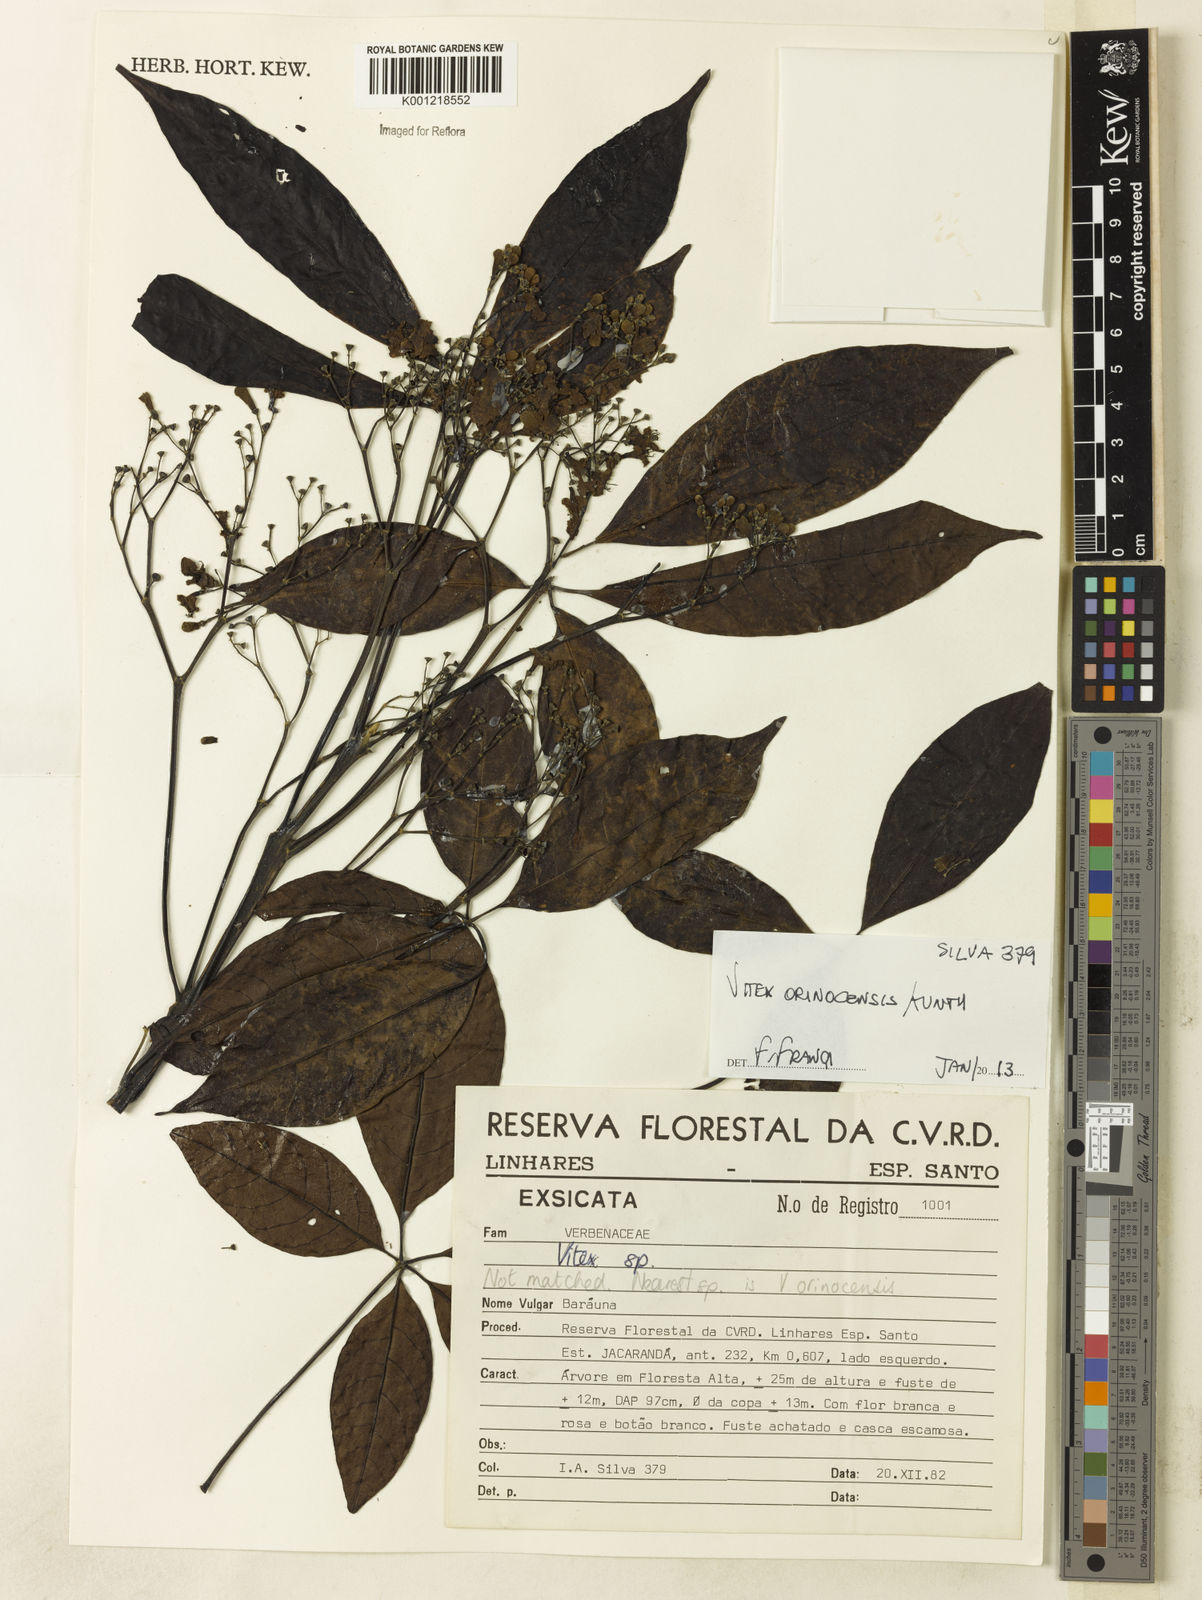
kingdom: Plantae
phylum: Tracheophyta
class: Magnoliopsida
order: Lamiales
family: Lamiaceae
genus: Vitex
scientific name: Vitex orinocensis
